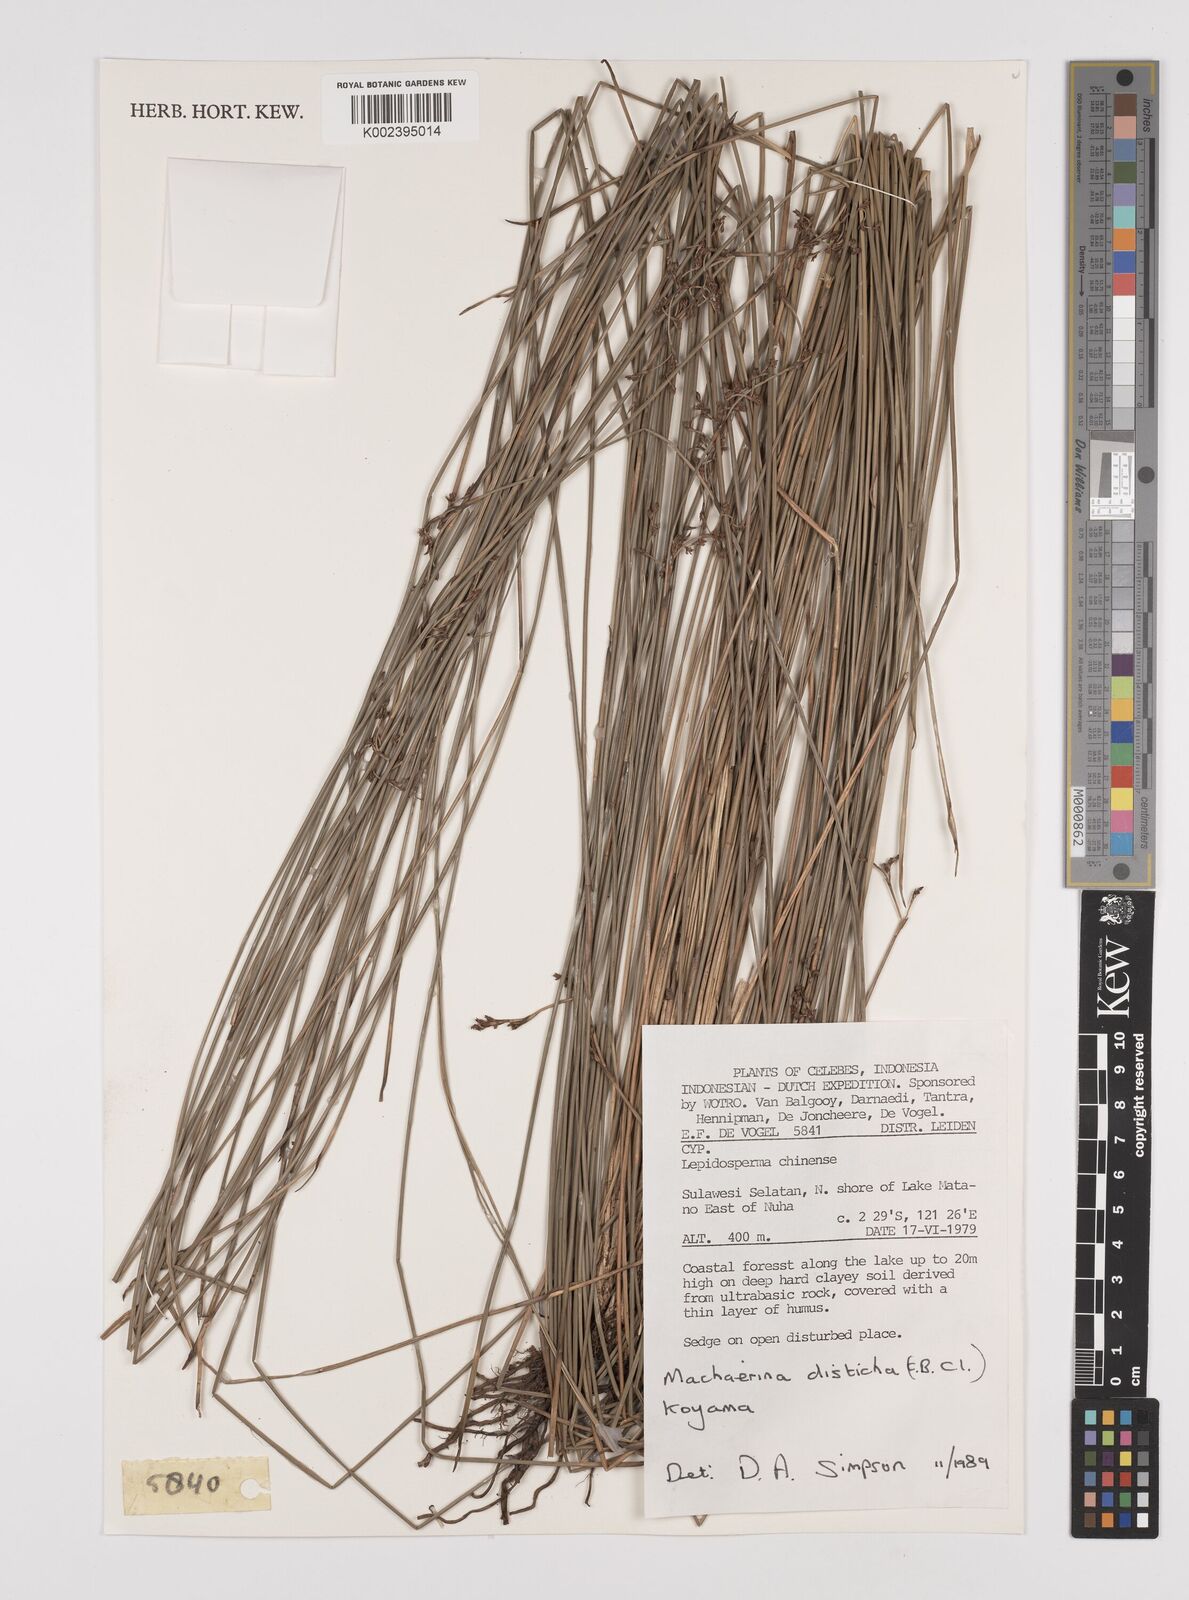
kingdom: Plantae
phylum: Tracheophyta
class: Liliopsida
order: Poales
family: Cyperaceae
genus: Machaerina
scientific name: Machaerina disticha
